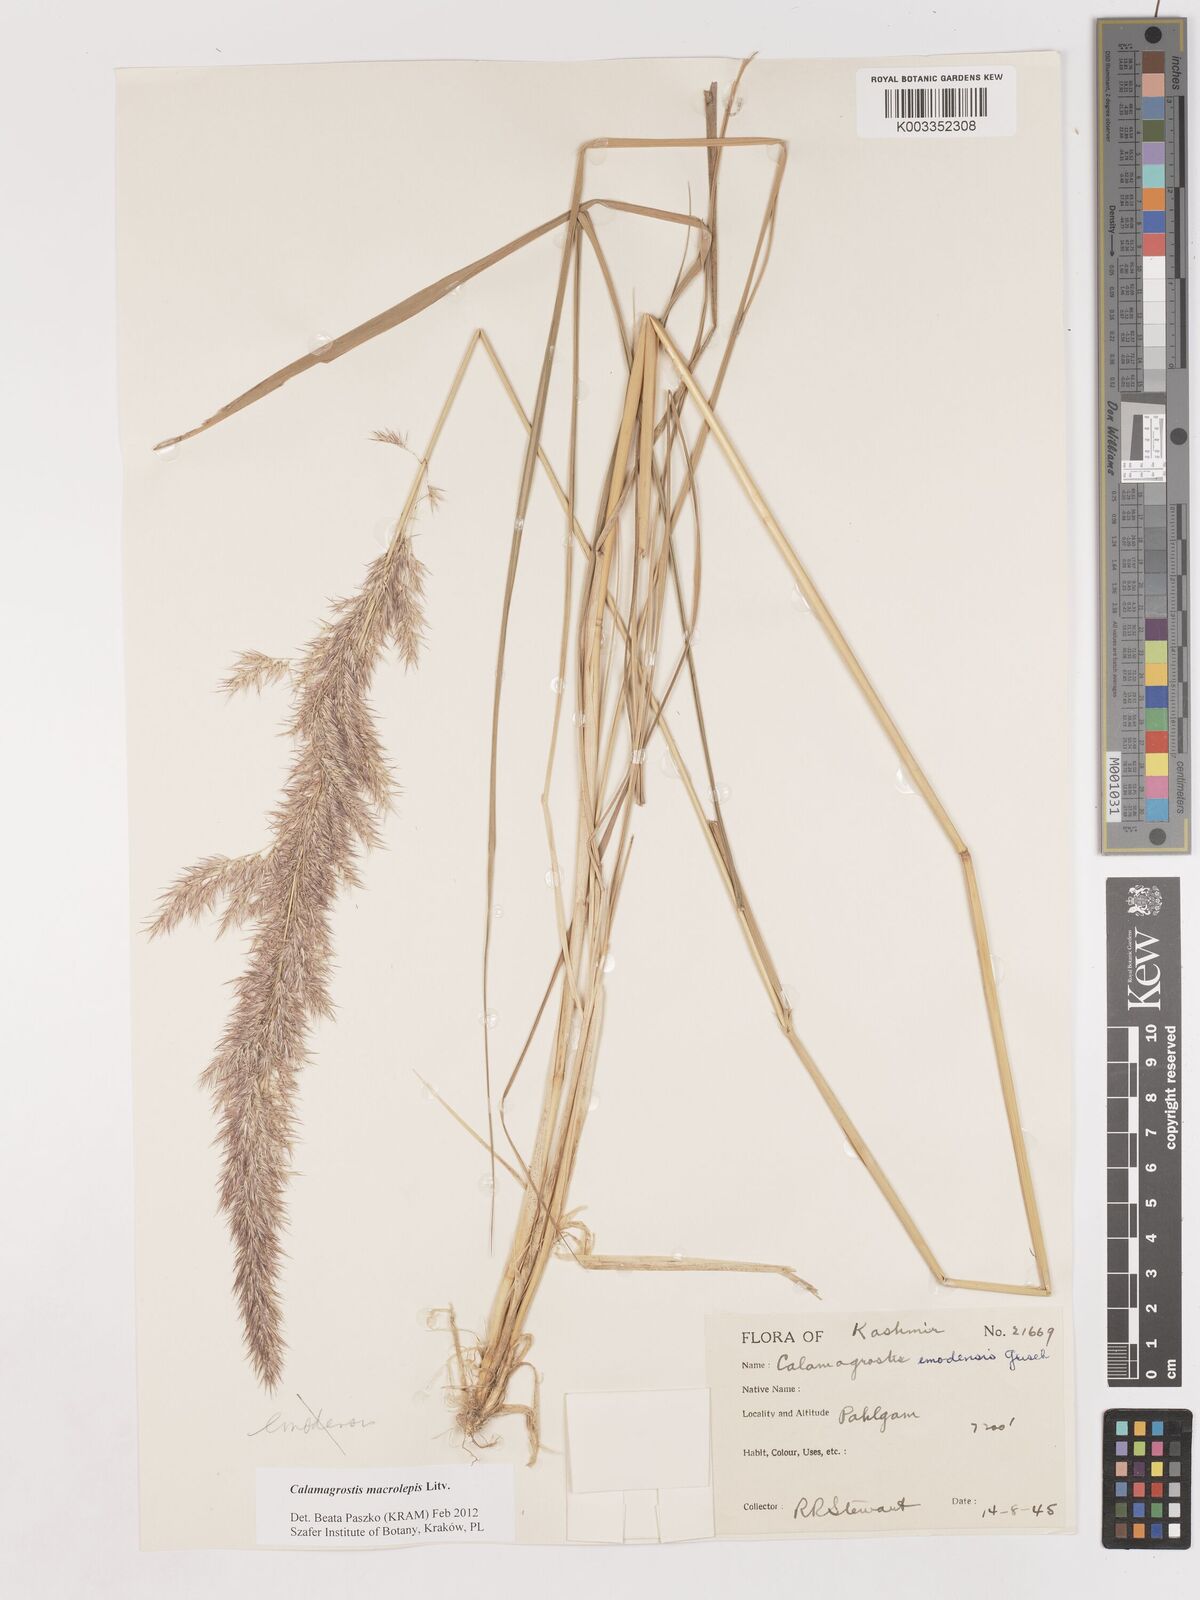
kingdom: Plantae
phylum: Tracheophyta
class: Liliopsida
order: Poales
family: Poaceae
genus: Calamagrostis
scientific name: Calamagrostis epigejos
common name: Wood small-reed
